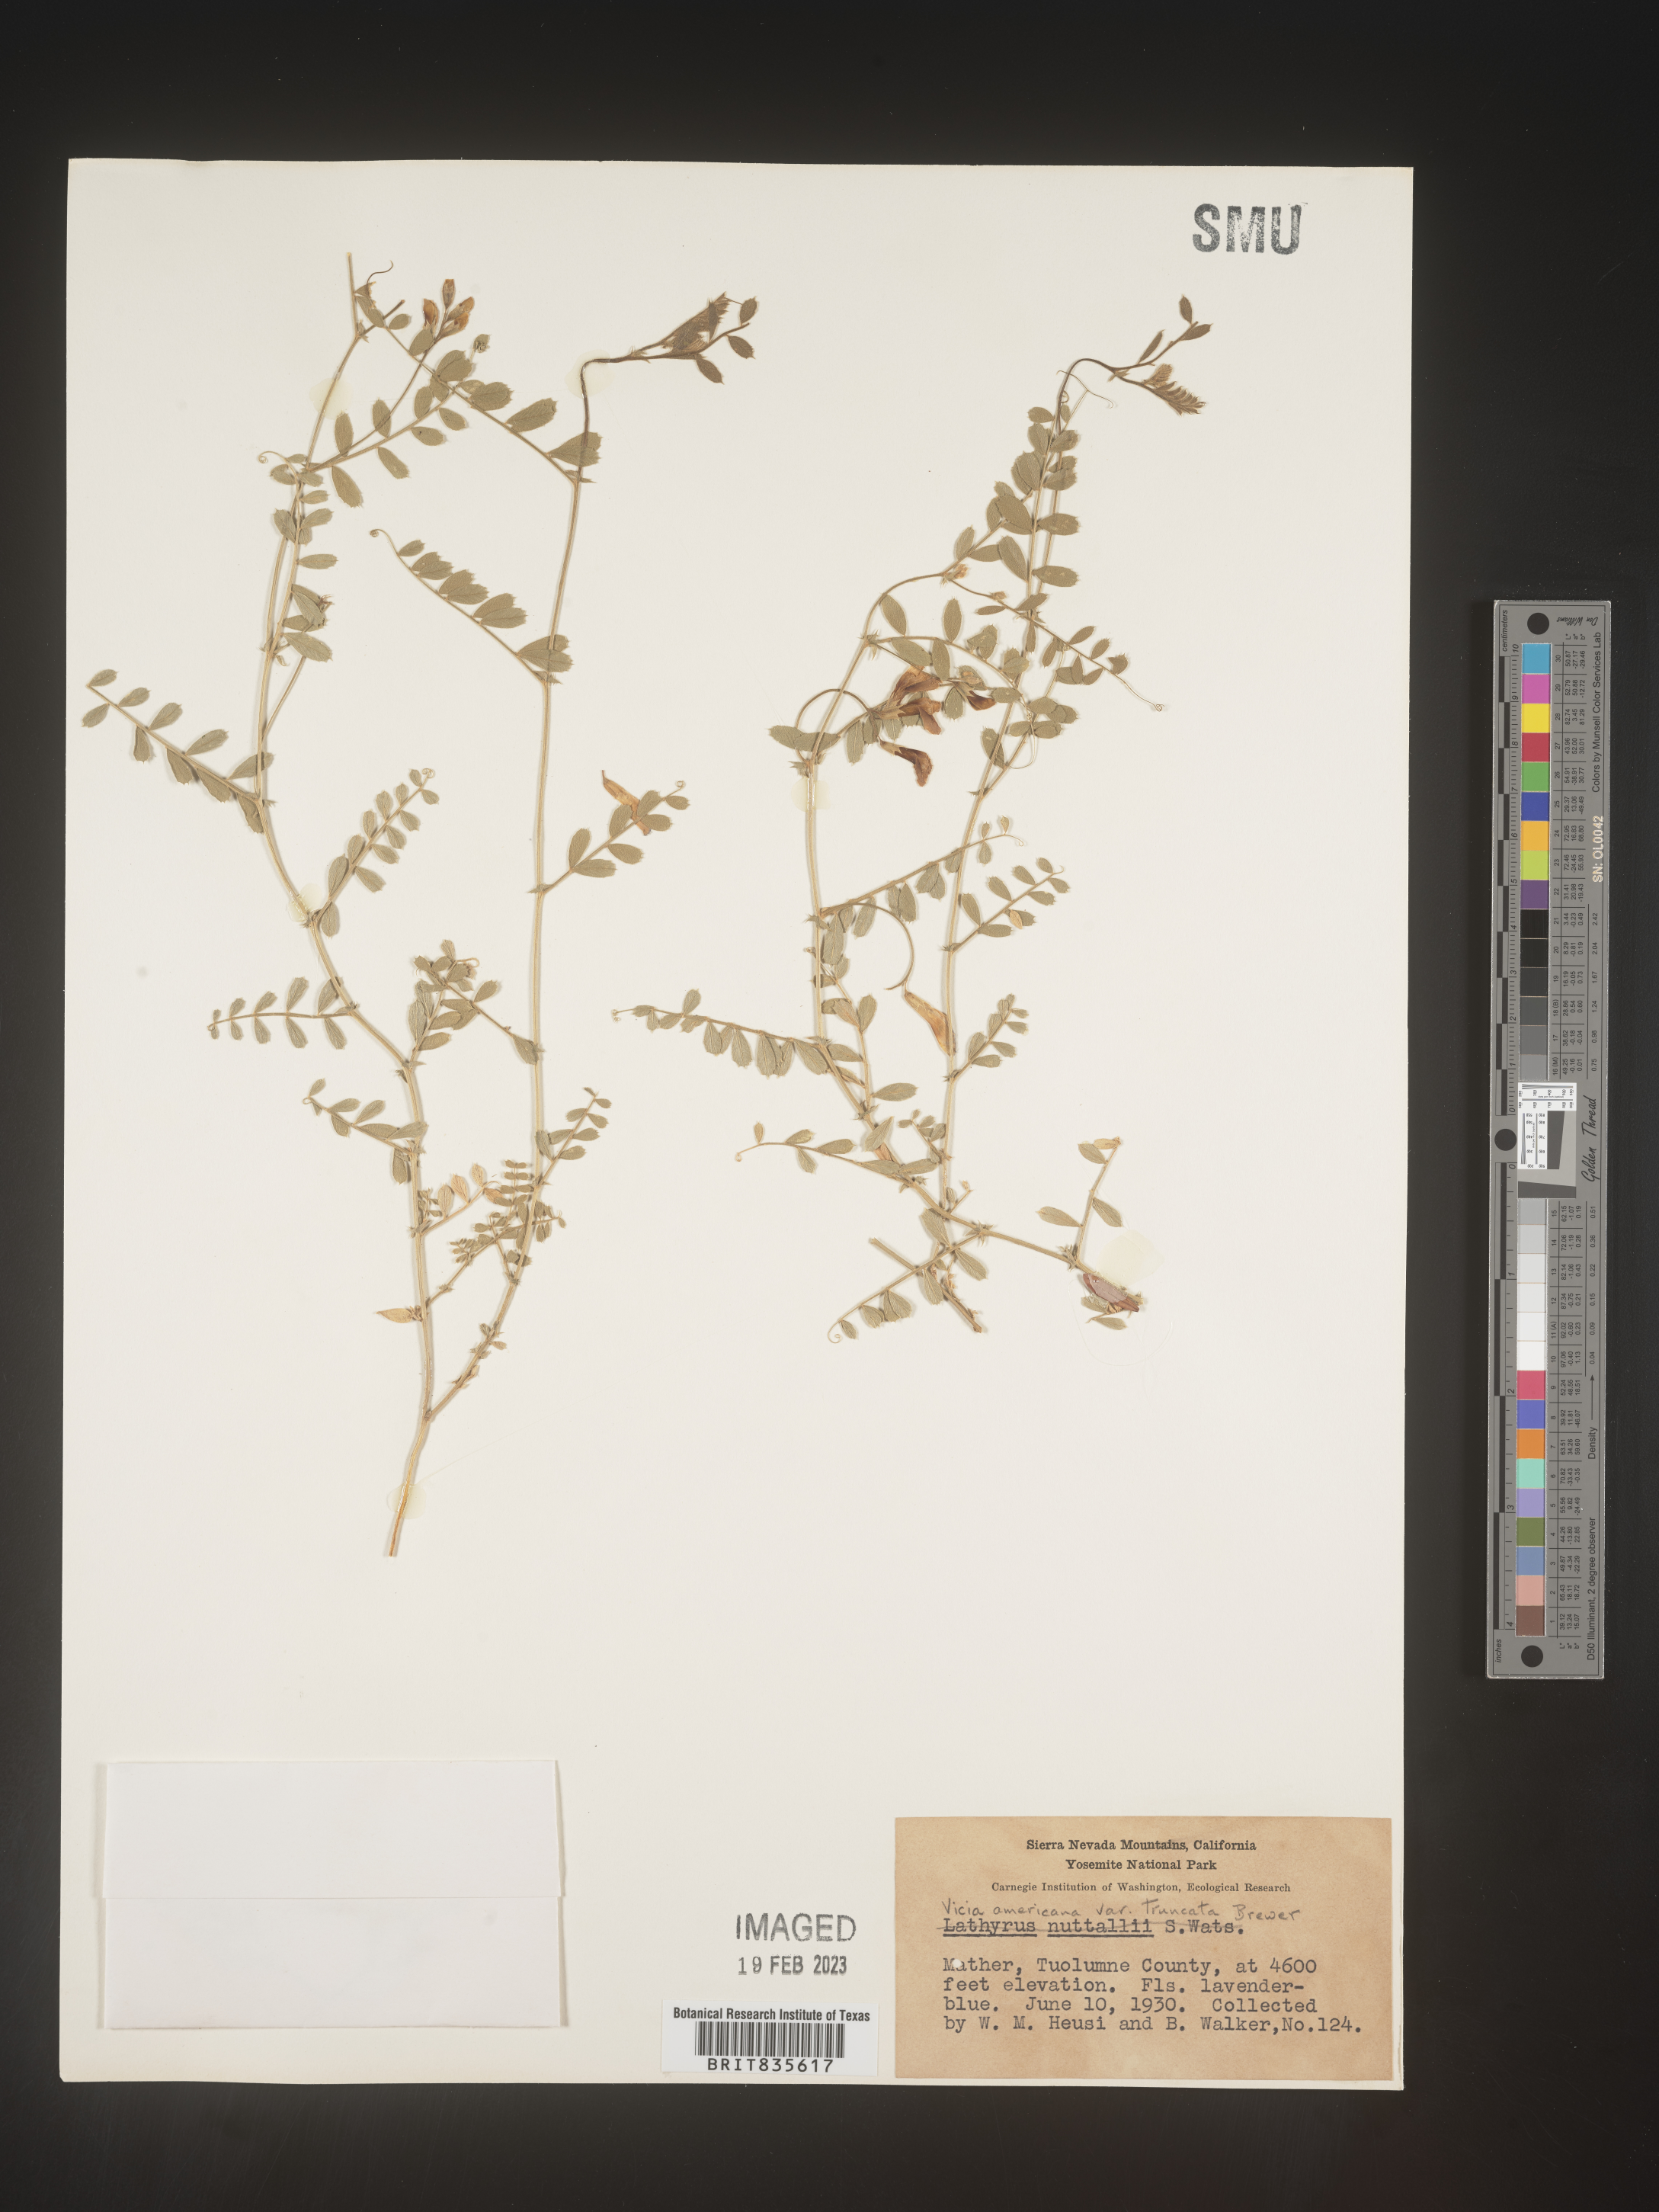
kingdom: Plantae
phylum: Tracheophyta
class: Magnoliopsida
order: Fabales
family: Fabaceae
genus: Vicia
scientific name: Vicia americana
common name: American vetch
